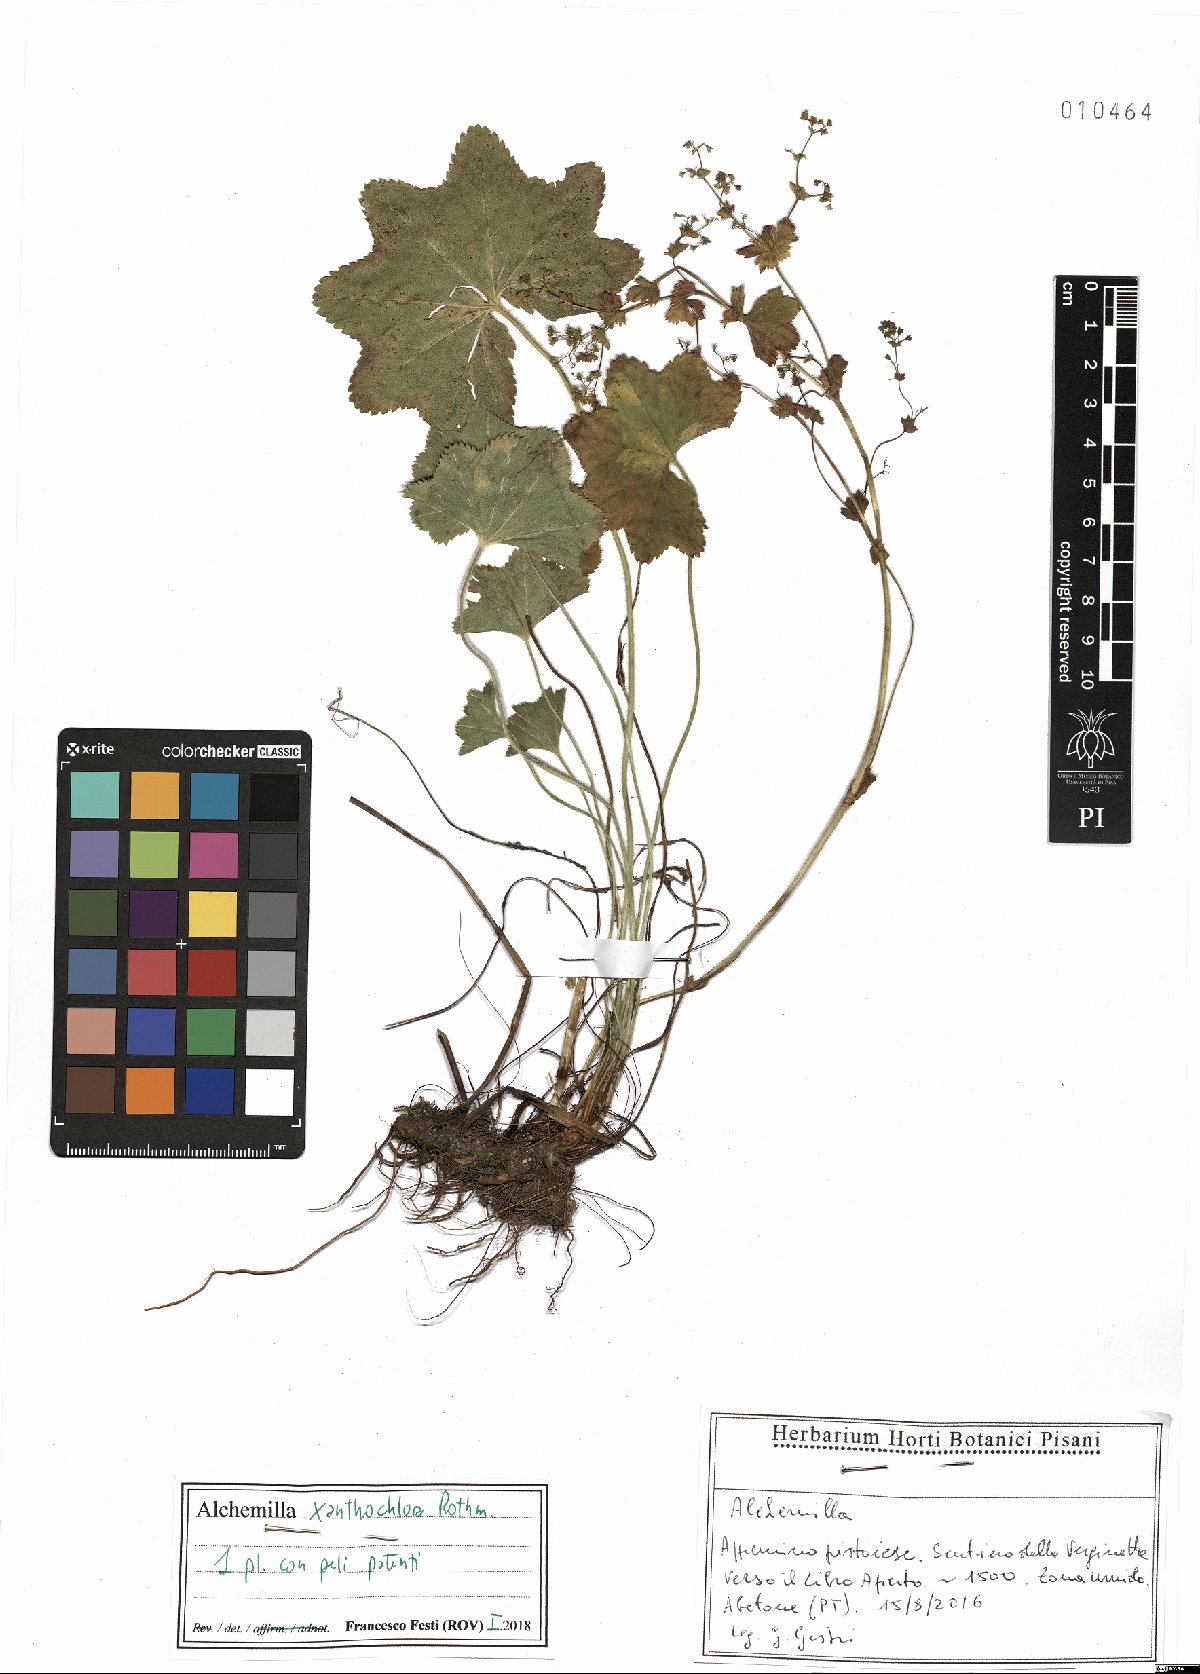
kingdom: Plantae
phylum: Tracheophyta
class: Magnoliopsida
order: Rosales
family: Rosaceae
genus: Alchemilla
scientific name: Alchemilla xanthochlora
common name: Intermediate lady's-mantle
